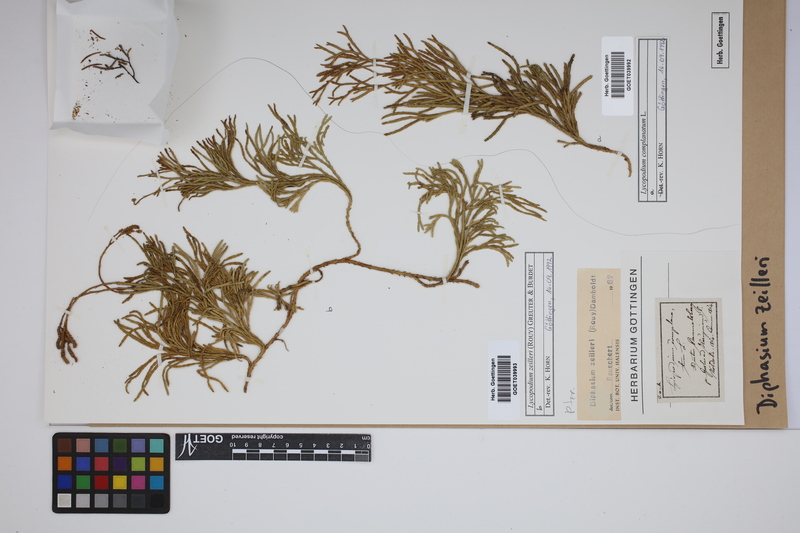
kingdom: Plantae
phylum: Tracheophyta
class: Lycopodiopsida
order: Lycopodiales
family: Lycopodiaceae
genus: Diphasiastrum
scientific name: Diphasiastrum complanatum
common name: Northern running-pine
